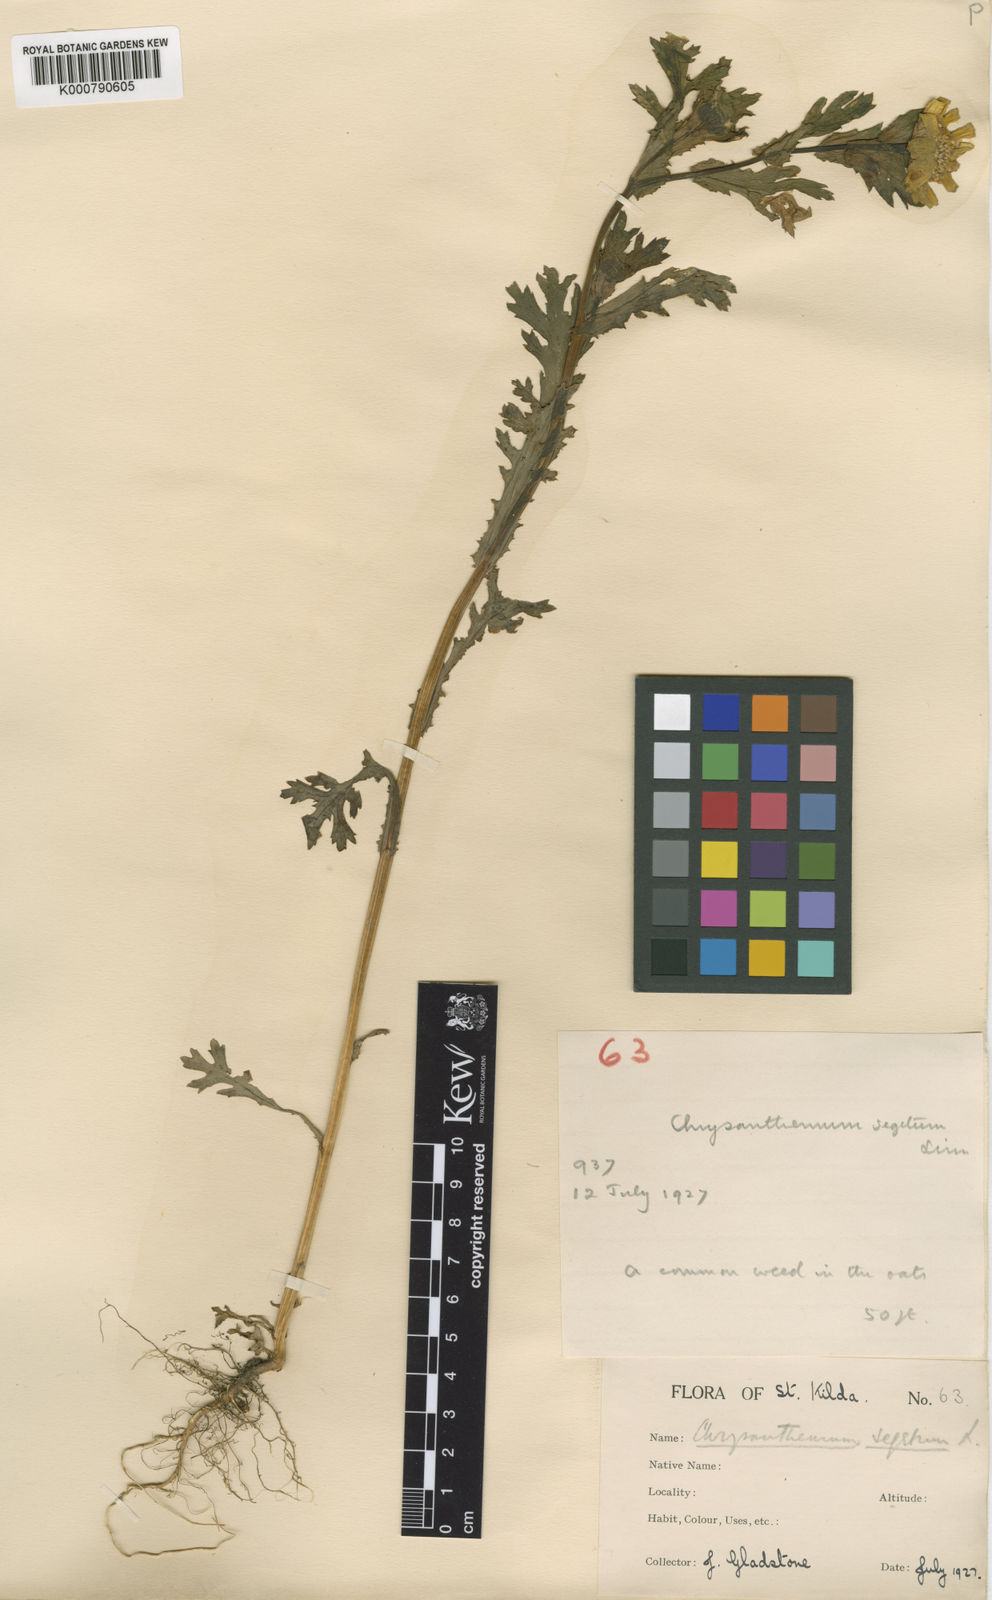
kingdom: Plantae
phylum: Tracheophyta
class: Magnoliopsida
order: Asterales
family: Asteraceae
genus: Glebionis
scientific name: Glebionis
